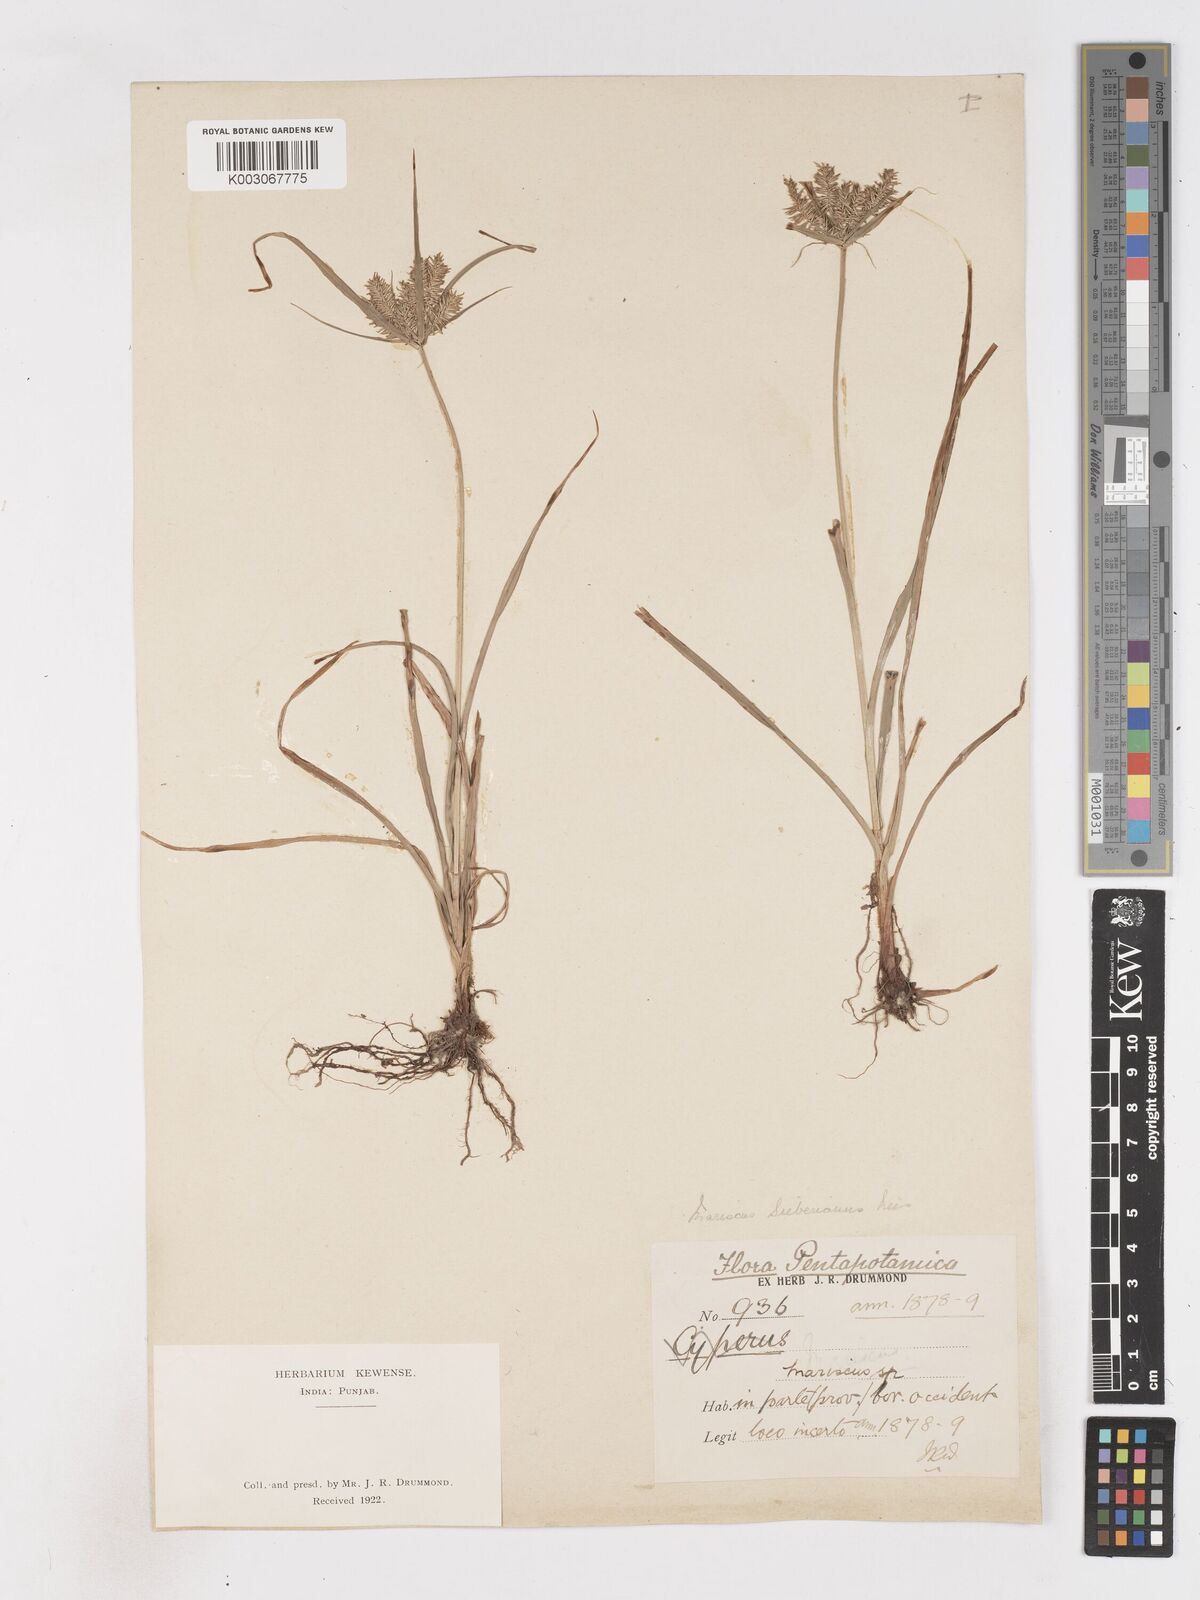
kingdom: Plantae
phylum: Tracheophyta
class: Liliopsida
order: Poales
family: Cyperaceae
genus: Cyperus
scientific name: Cyperus cyperoides
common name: Pacific island flat sedge
